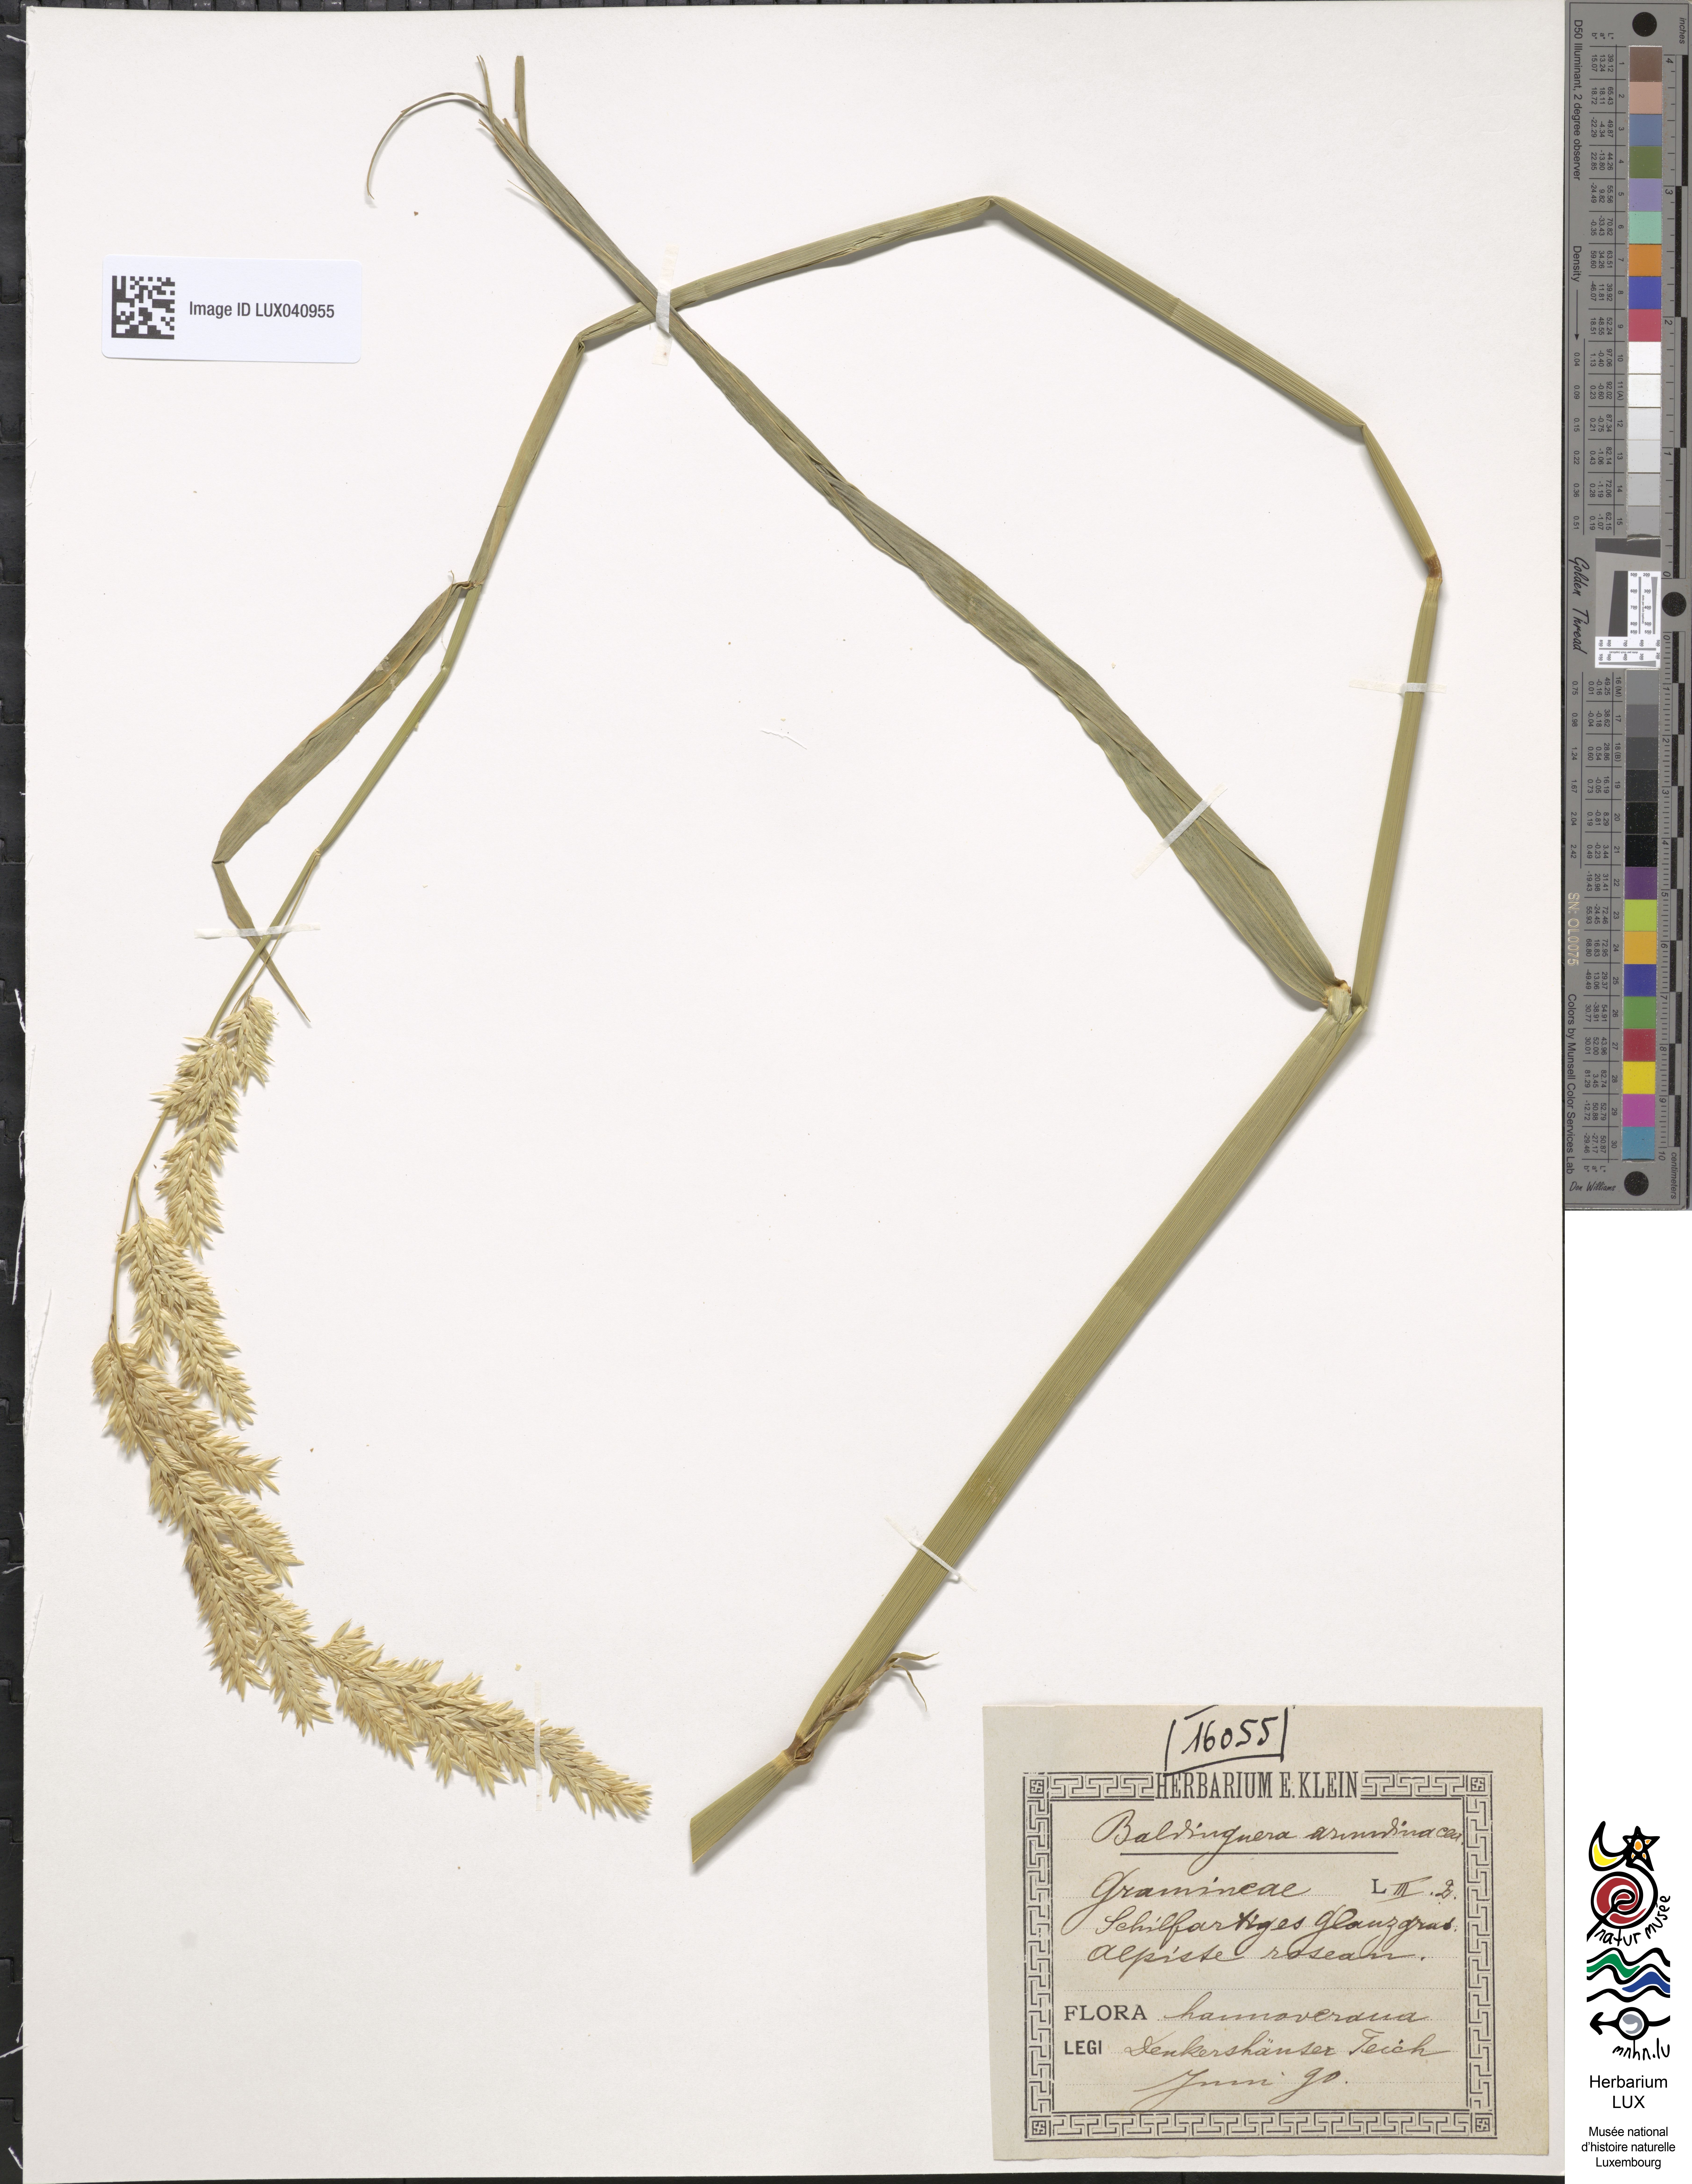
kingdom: Plantae
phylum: Tracheophyta
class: Liliopsida
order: Poales
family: Poaceae
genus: Phalaris
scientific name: Phalaris arundinacea
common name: Reed canary-grass
